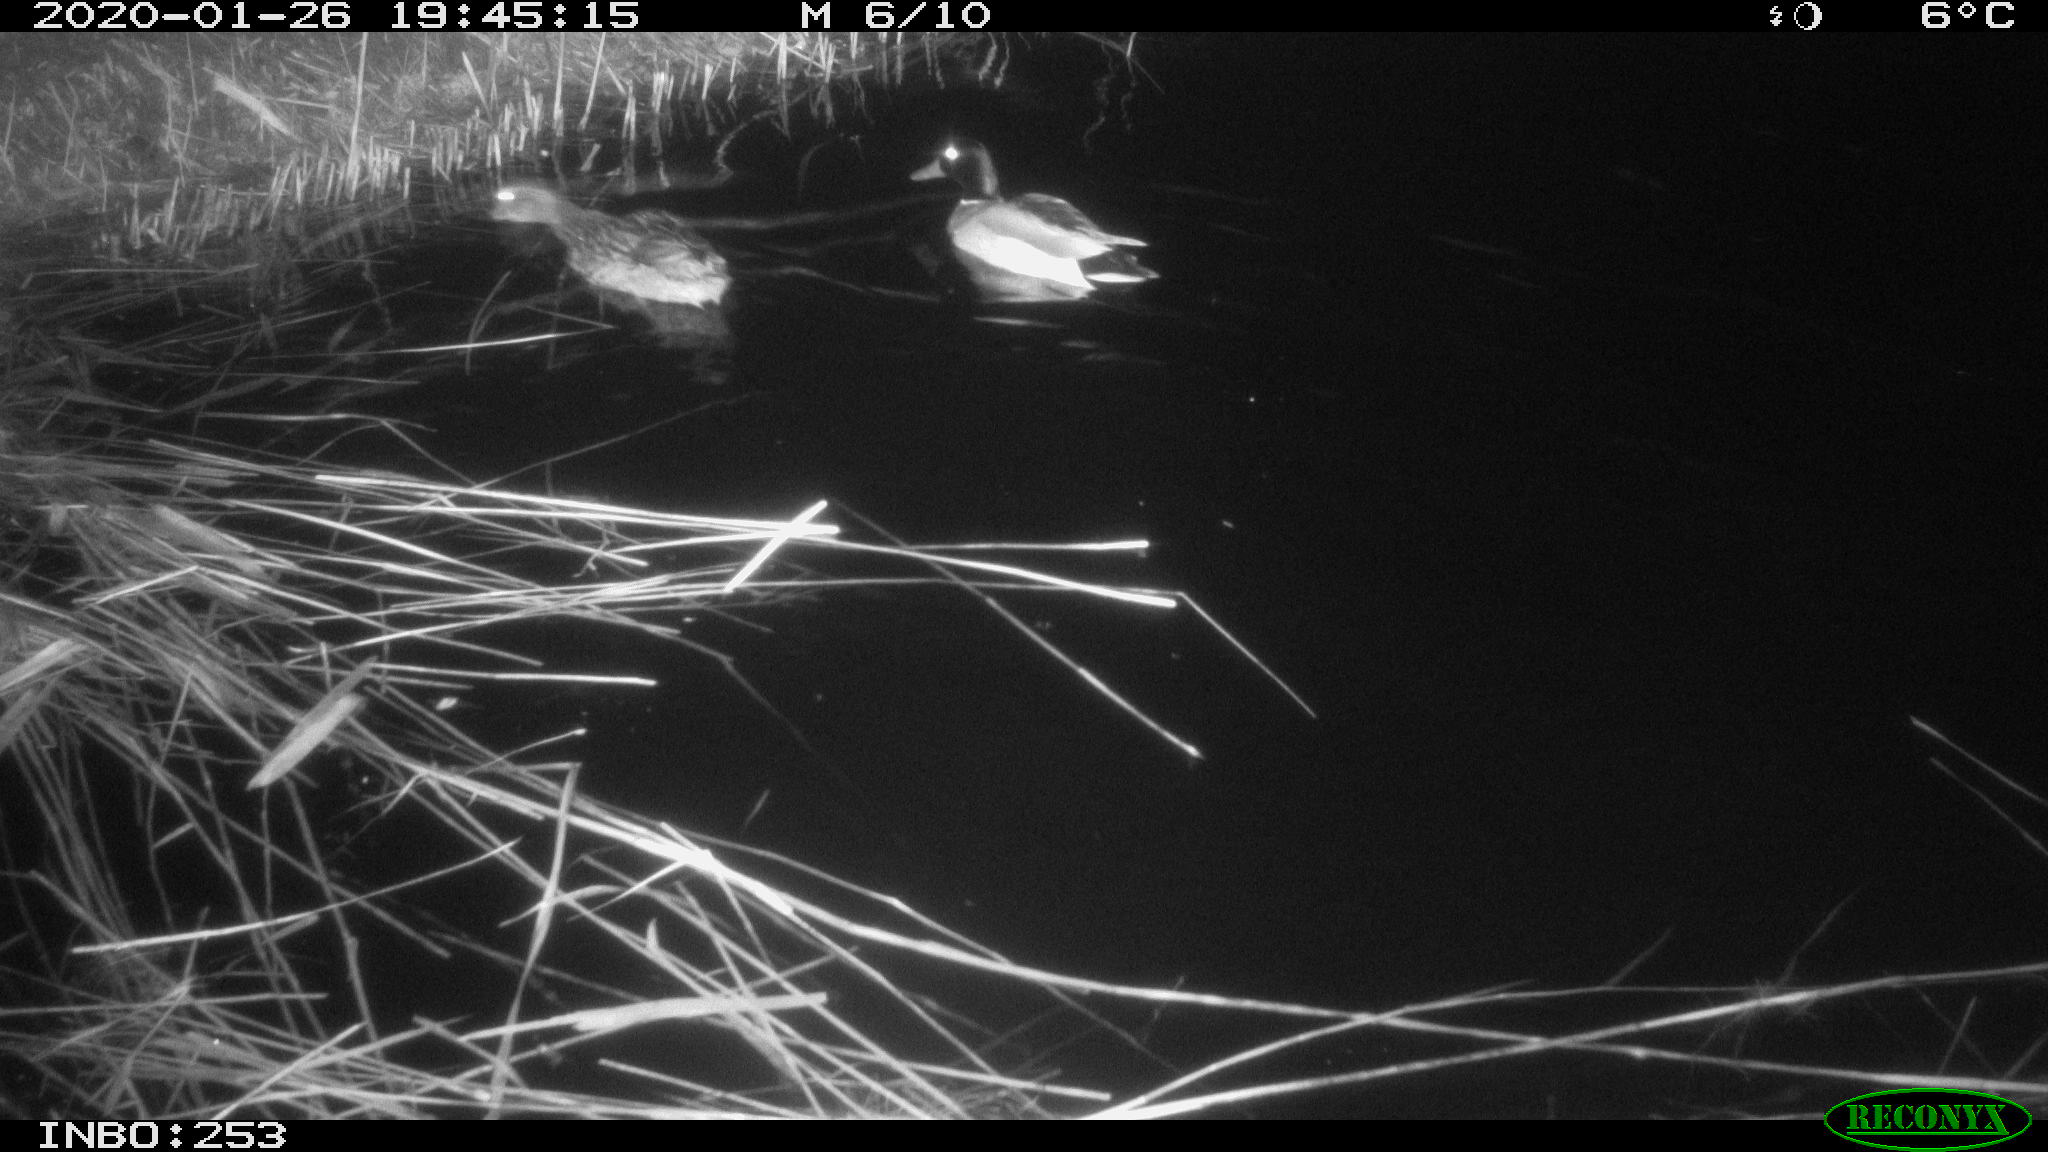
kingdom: Animalia
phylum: Chordata
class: Aves
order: Anseriformes
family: Anatidae
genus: Anas
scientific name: Anas platyrhynchos
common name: Mallard
